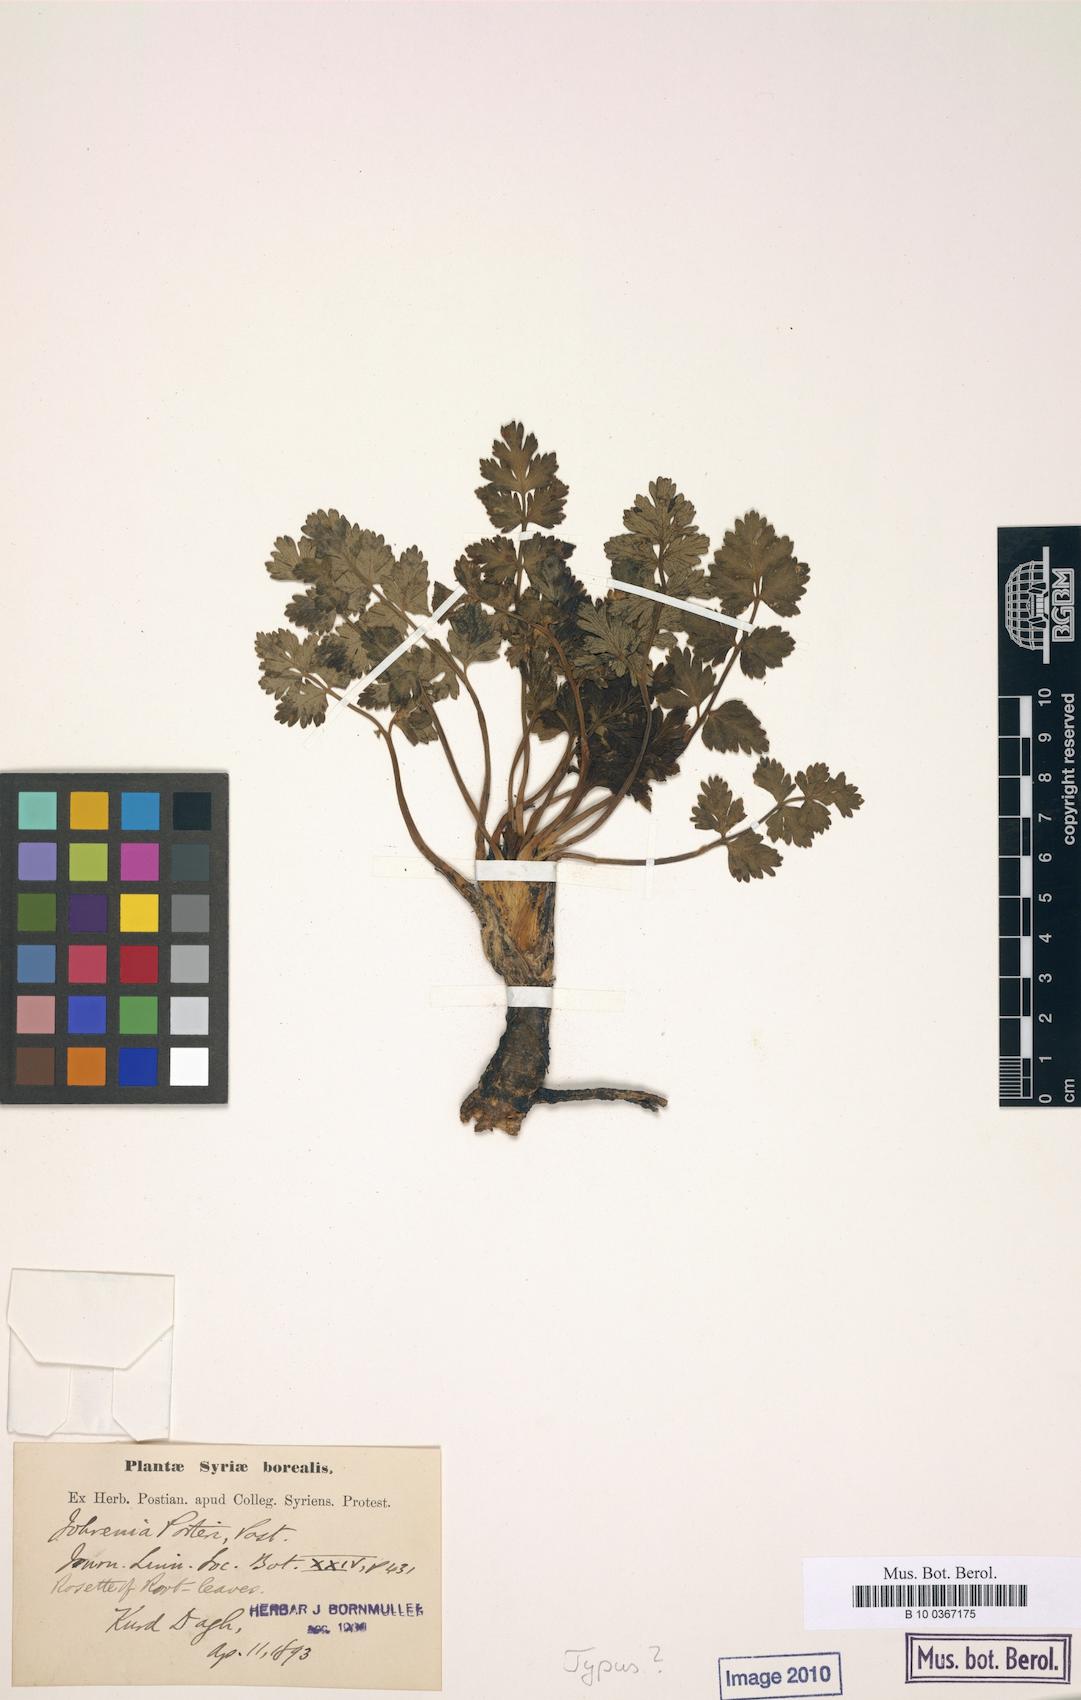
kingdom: Plantae
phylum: Tracheophyta
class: Magnoliopsida
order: Apiales
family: Apiaceae
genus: Ferulago
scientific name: Ferulago westii
